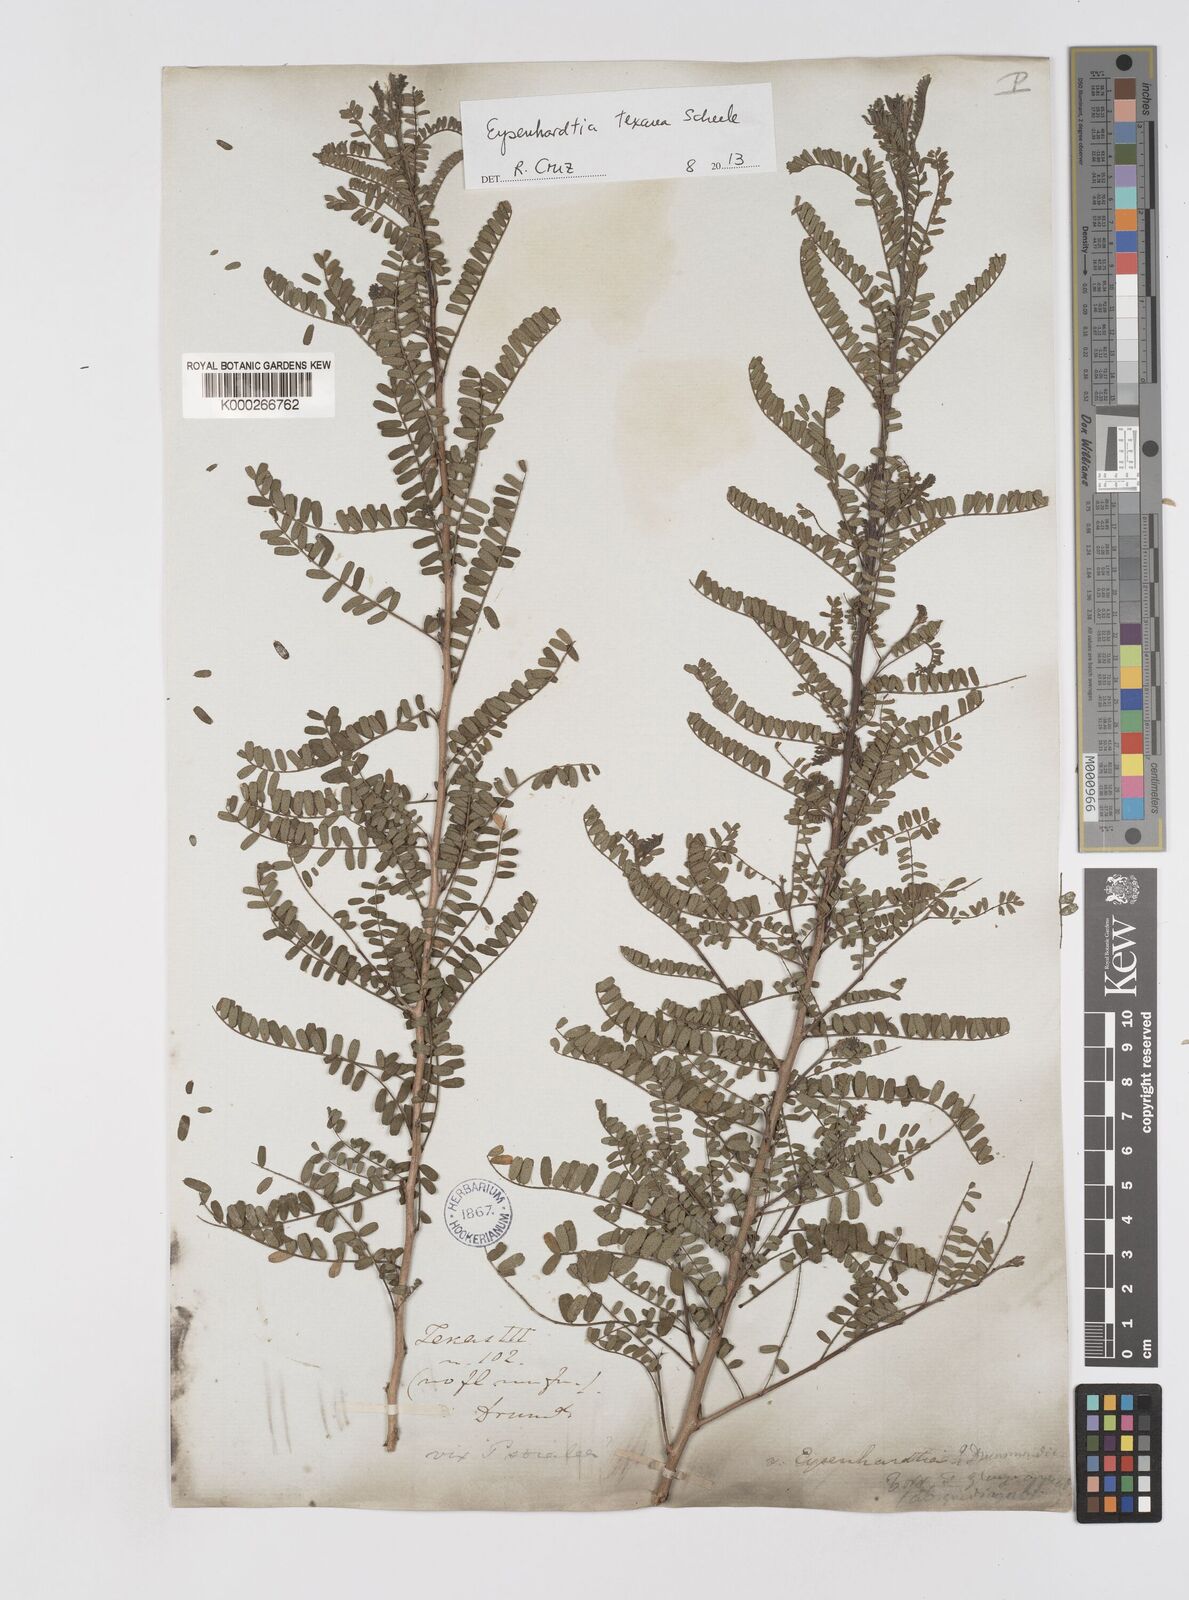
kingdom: Plantae
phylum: Tracheophyta
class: Magnoliopsida
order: Fabales
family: Fabaceae
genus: Eysenhardtia
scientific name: Eysenhardtia texana
